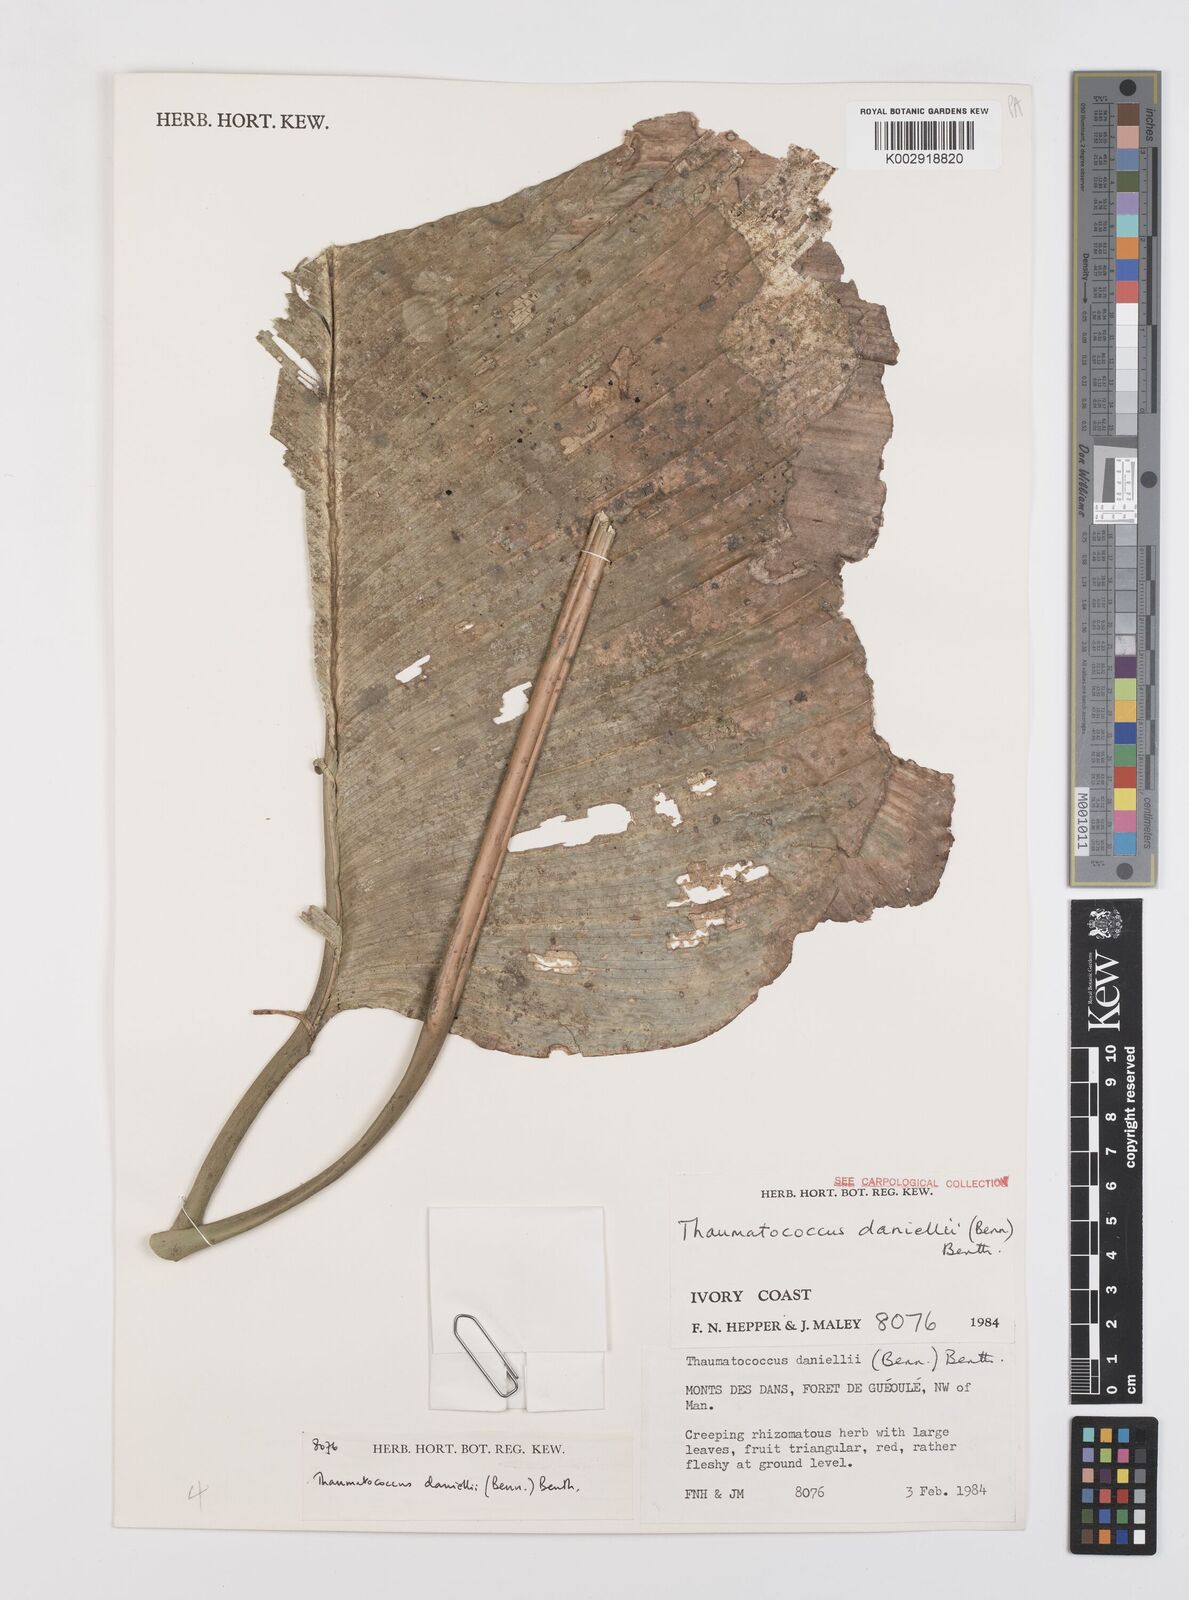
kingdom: Plantae
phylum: Tracheophyta
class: Liliopsida
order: Zingiberales
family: Marantaceae
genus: Thaumatococcus
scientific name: Thaumatococcus daniellii
